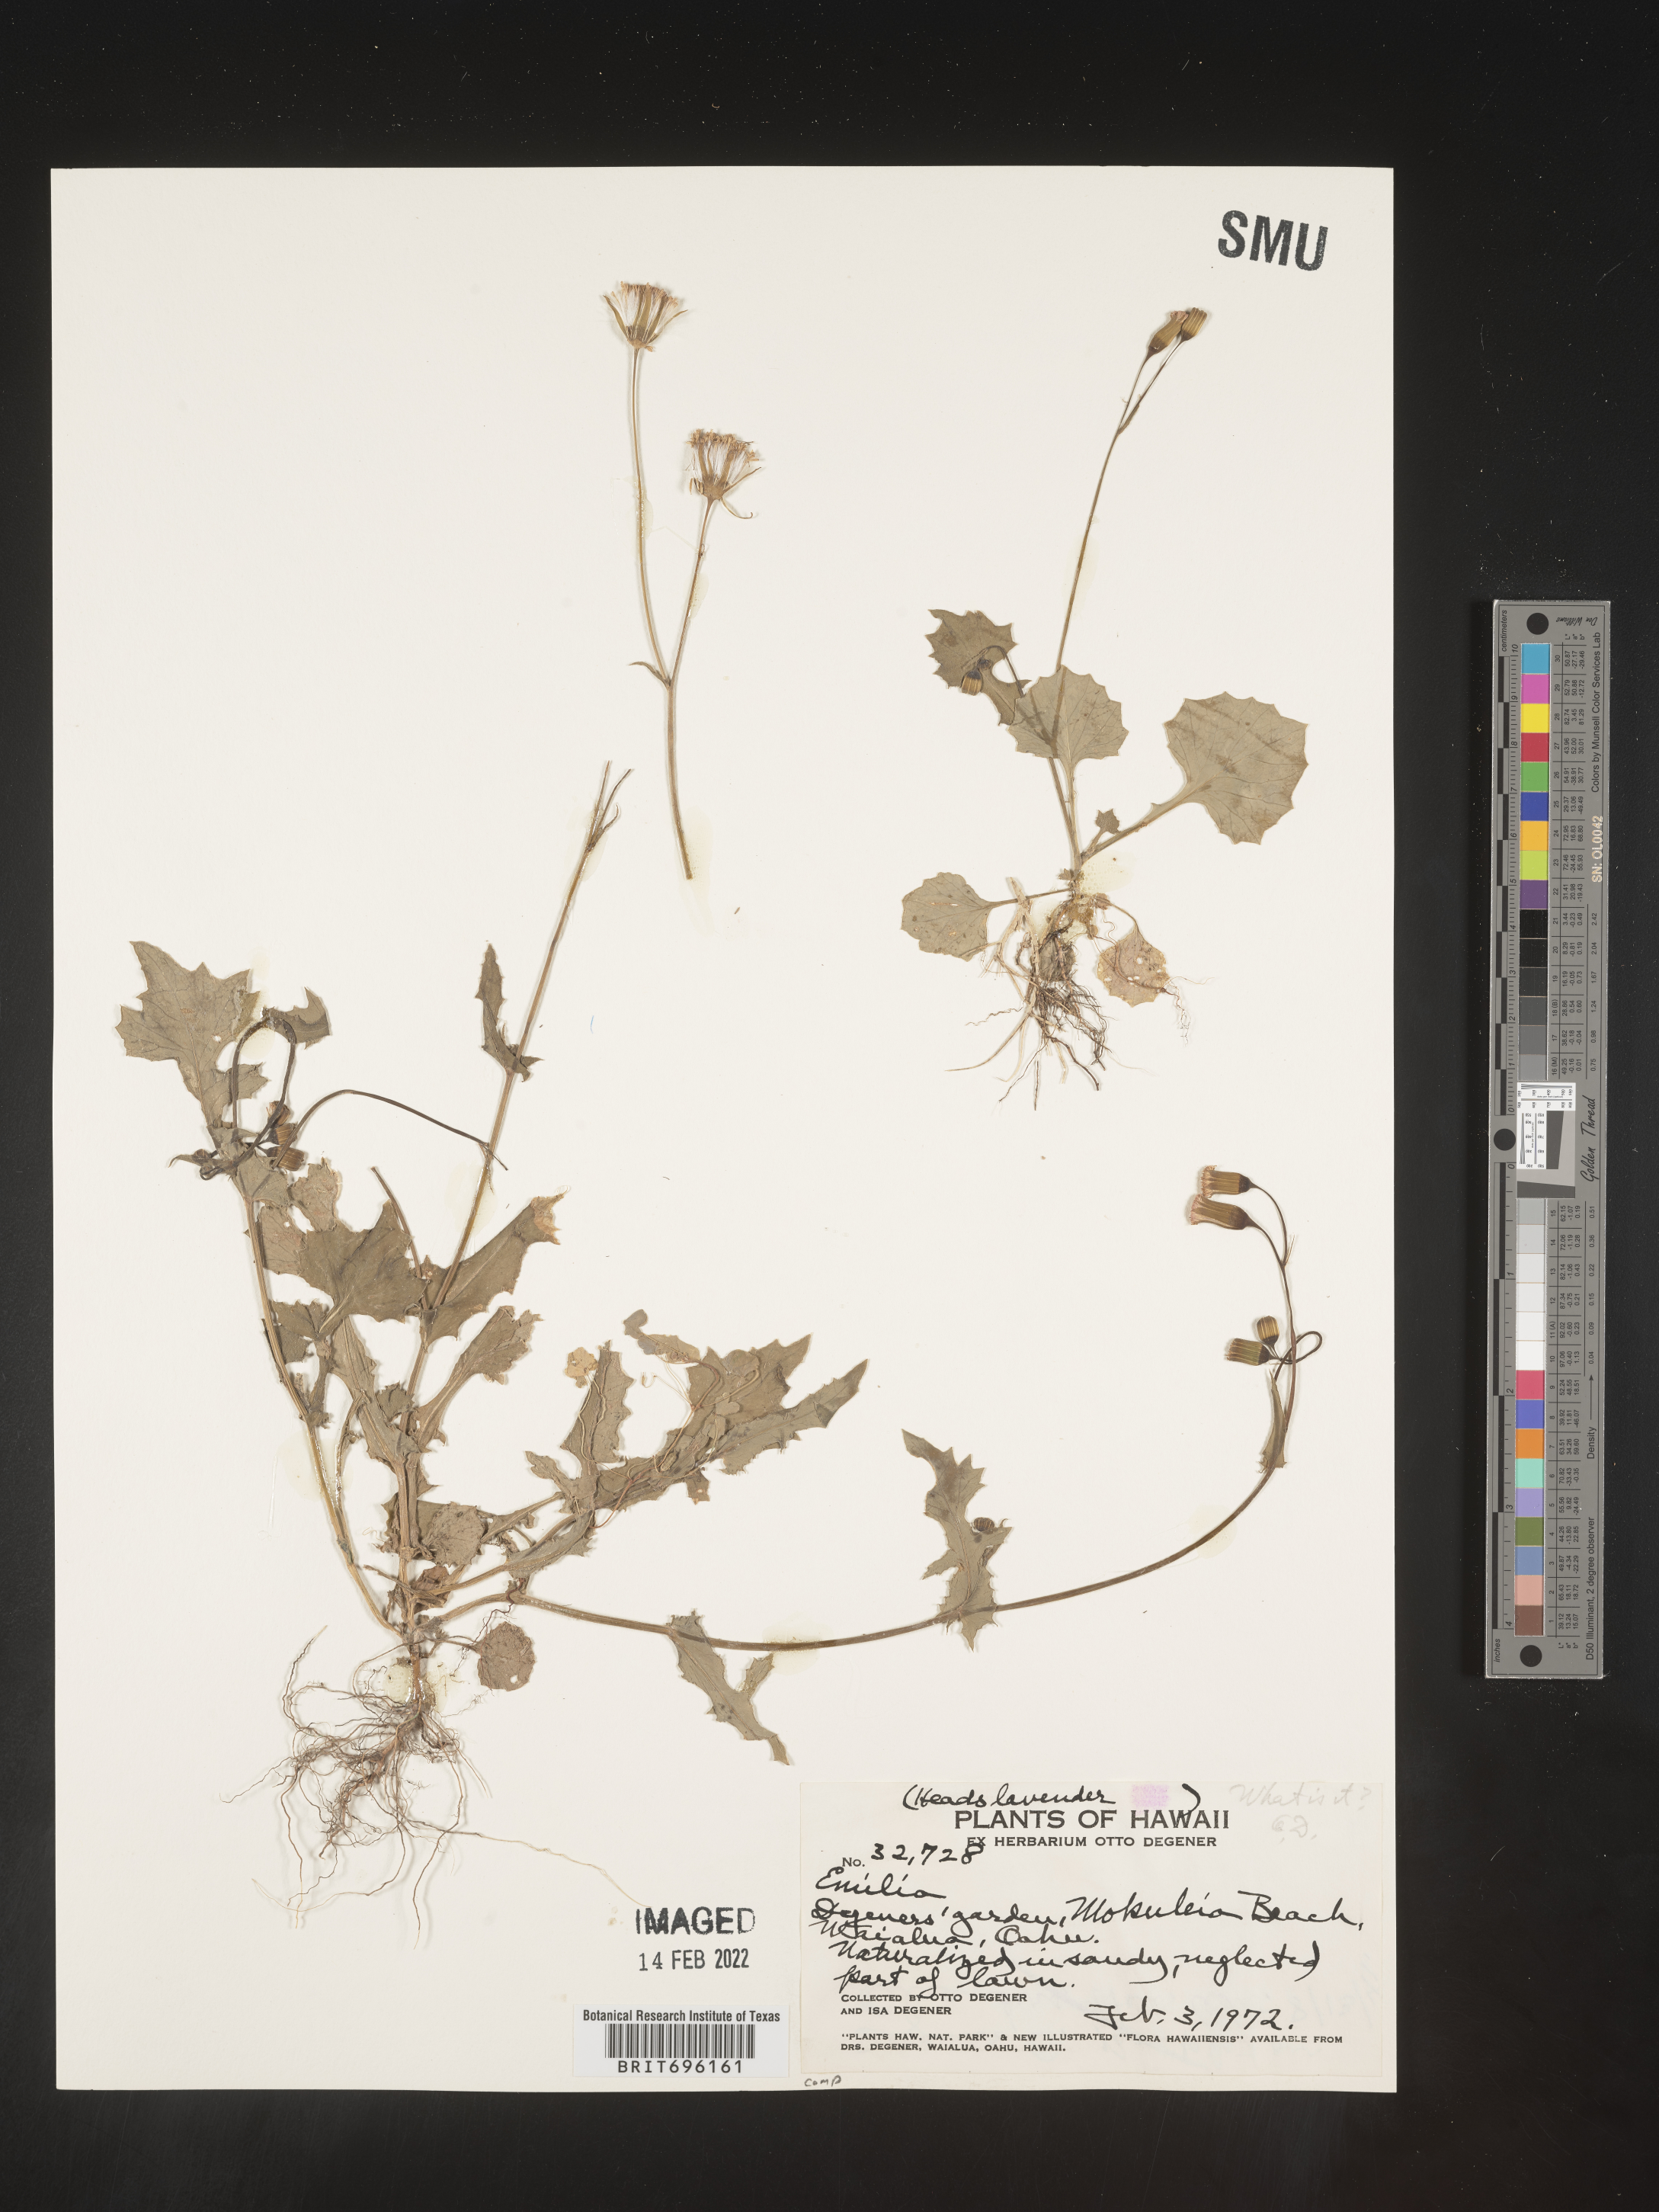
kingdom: Plantae
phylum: Tracheophyta
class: Magnoliopsida
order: Asterales
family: Asteraceae
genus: Emilia
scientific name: Emilia
